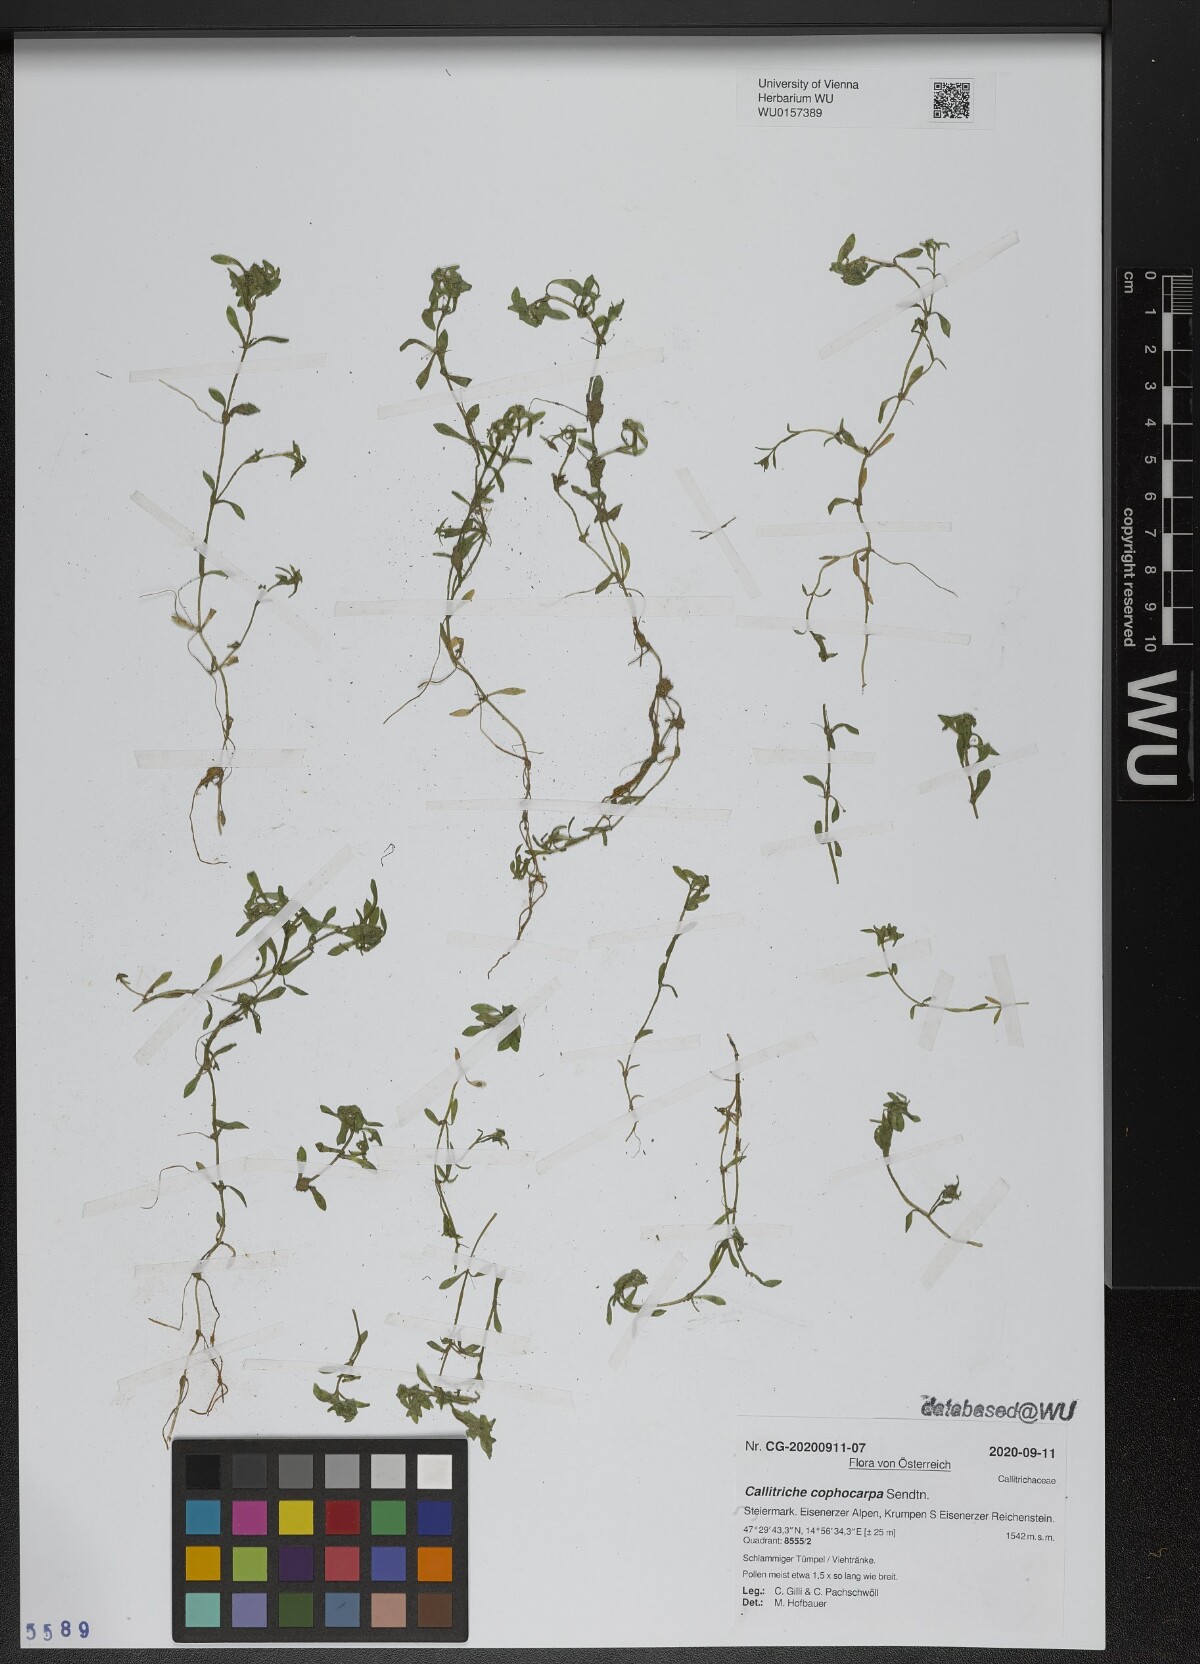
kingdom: Plantae
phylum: Tracheophyta
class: Magnoliopsida
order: Lamiales
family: Plantaginaceae
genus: Callitriche
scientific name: Callitriche cophocarpa
